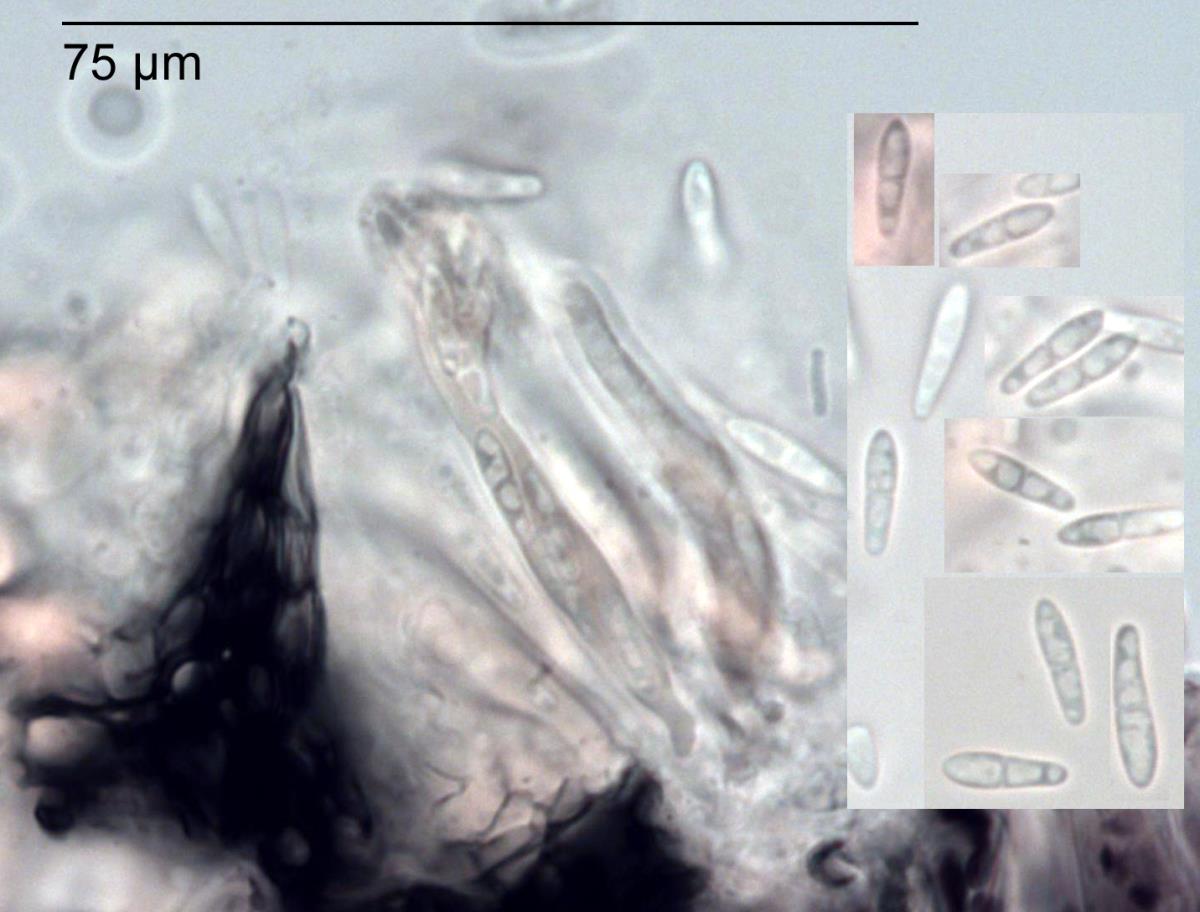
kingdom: Fungi
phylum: Ascomycota
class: Dothideomycetes
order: Mycosphaerellales
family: Mycosphaerellaceae
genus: Mycosphaerella
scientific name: Mycosphaerella cunninghamii
